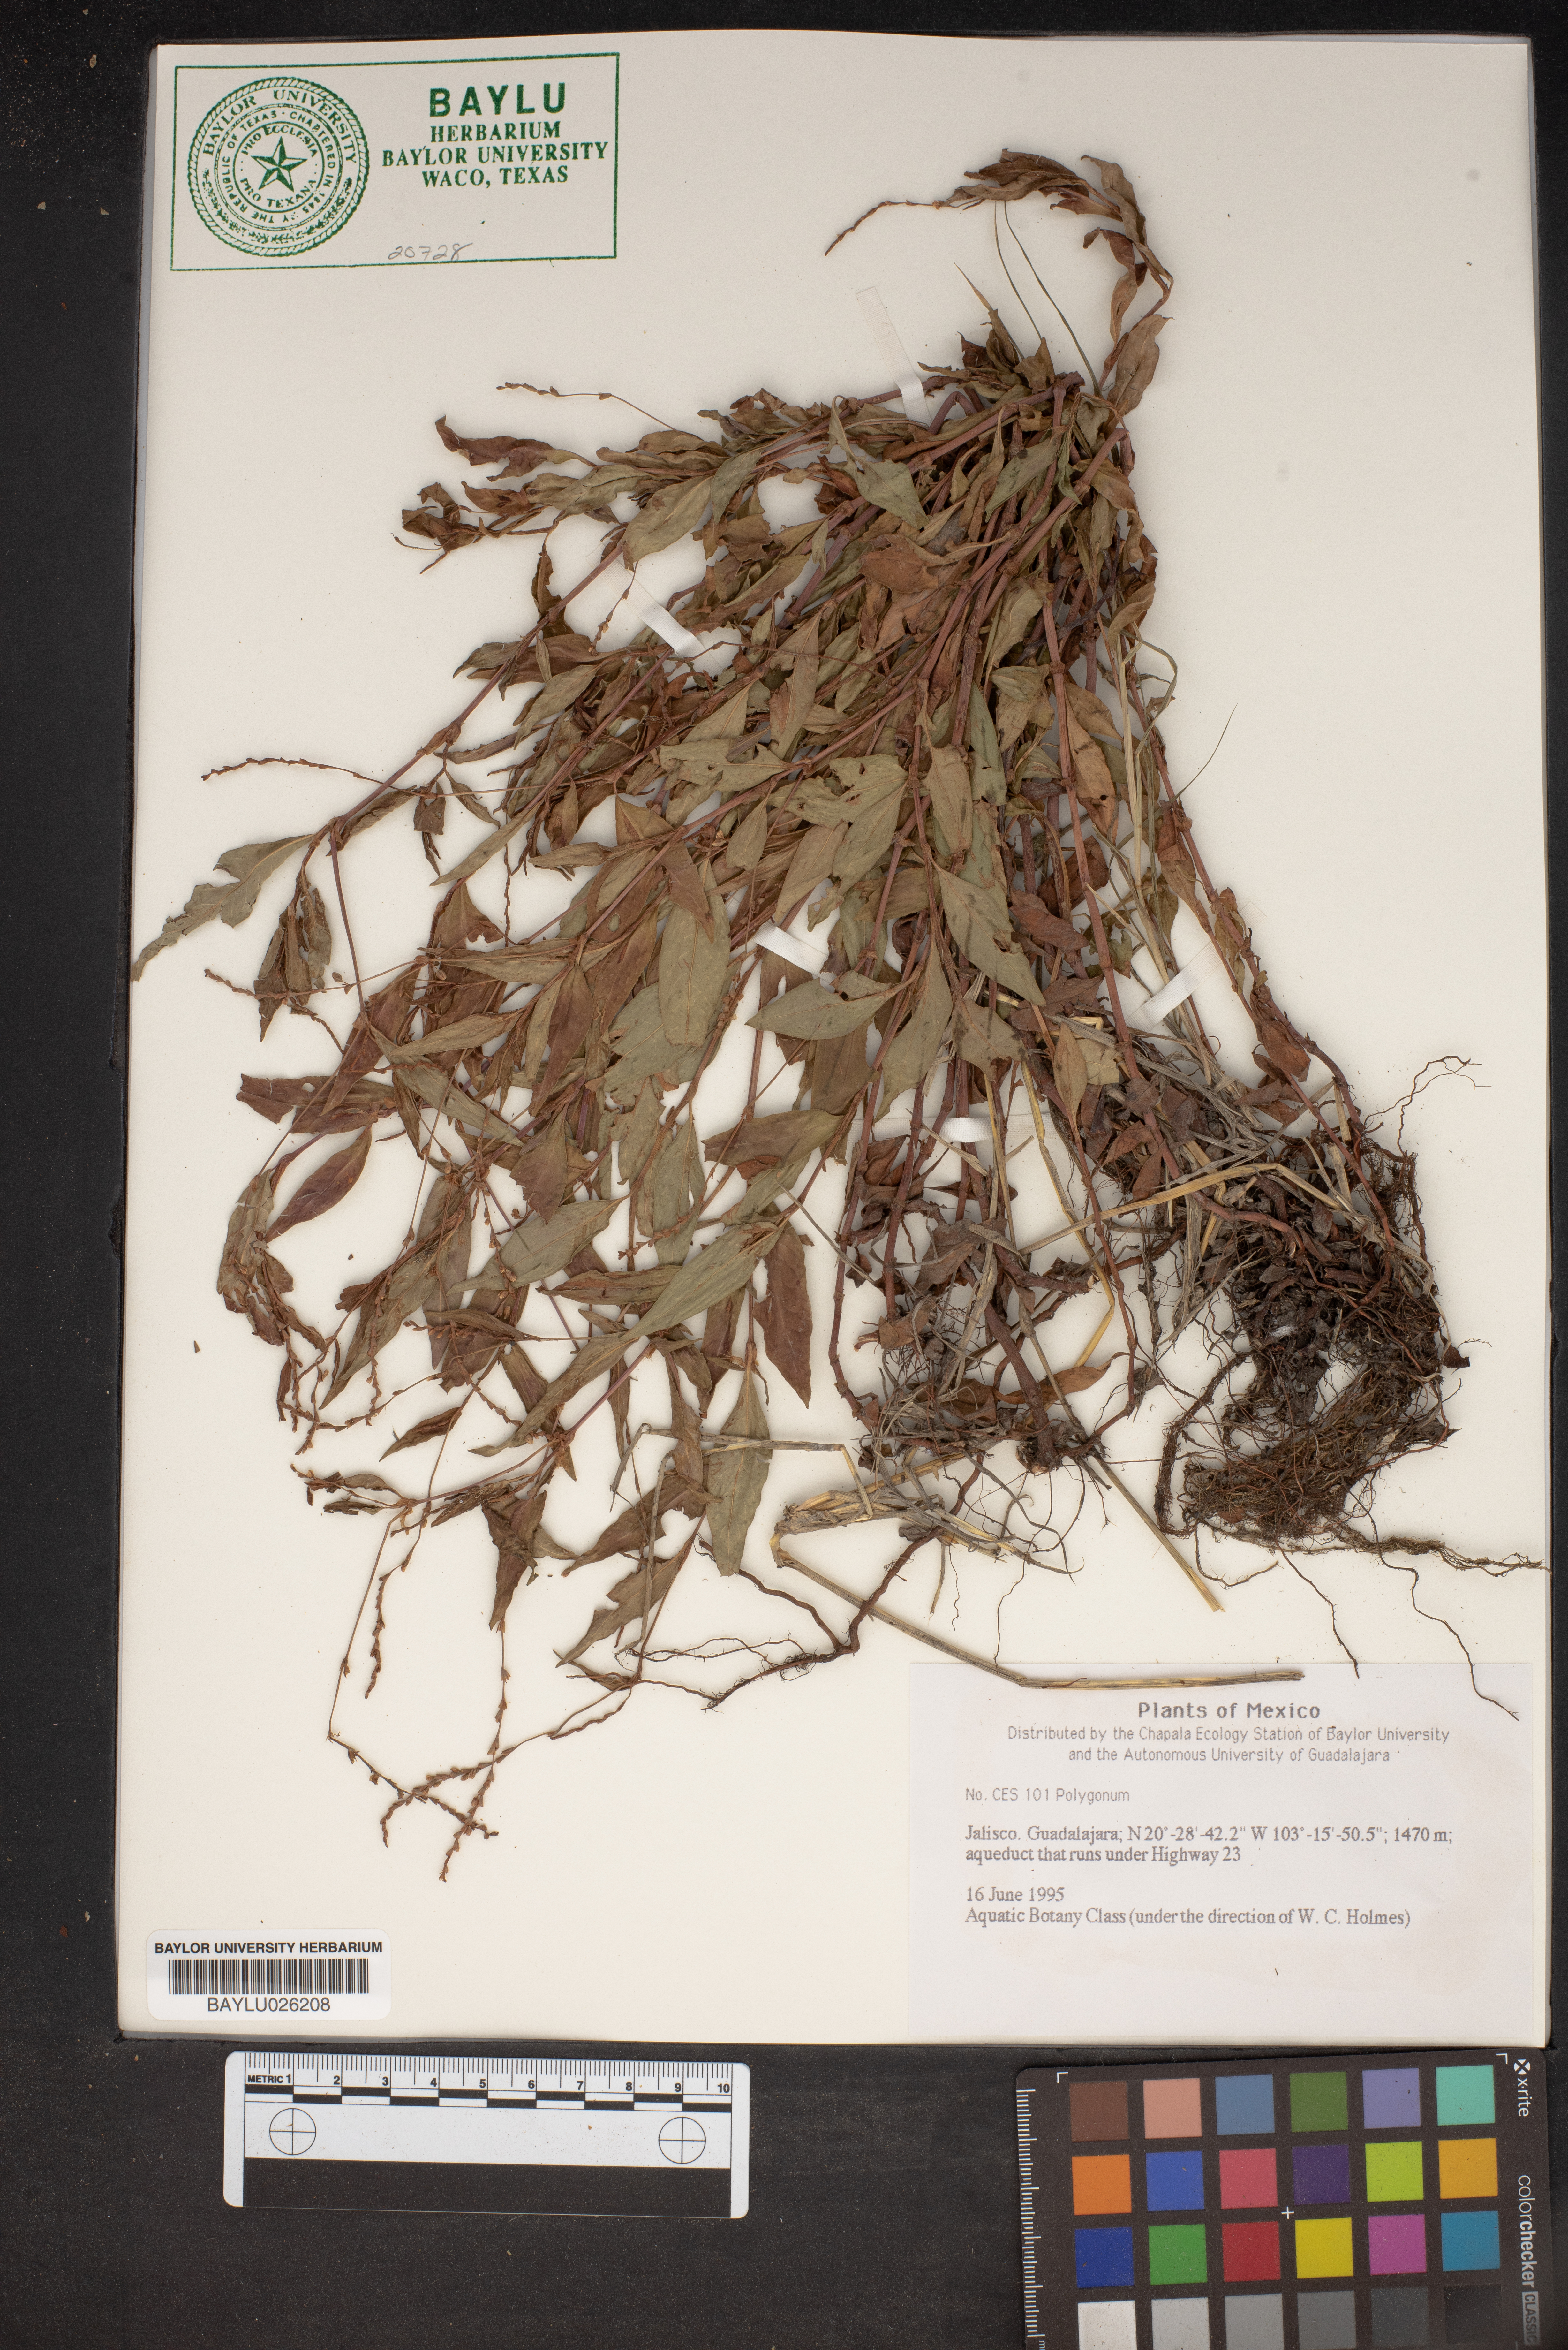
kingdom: Plantae
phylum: Tracheophyta
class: Magnoliopsida
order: Caryophyllales
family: Polygonaceae
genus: Polygonum
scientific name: Polygonum
